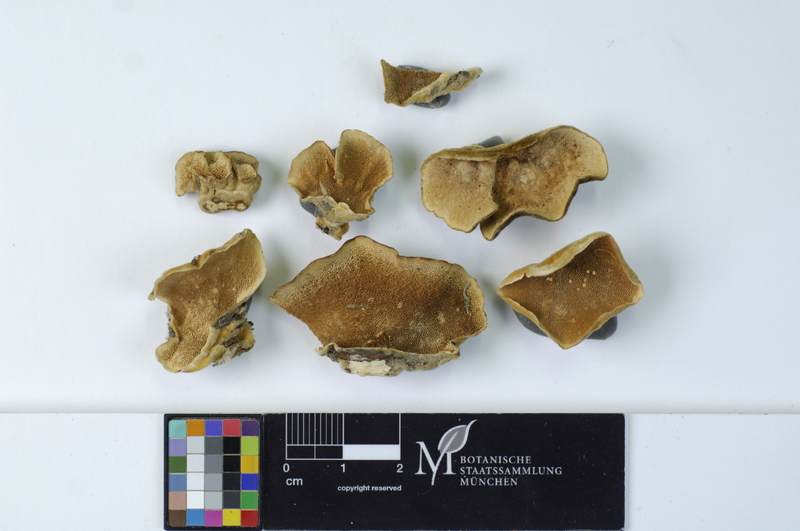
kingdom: Fungi
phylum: Basidiomycota
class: Agaricomycetes
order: Polyporales
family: Polyporaceae
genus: Trametes
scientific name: Trametes versicolor
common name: Turkeytail
